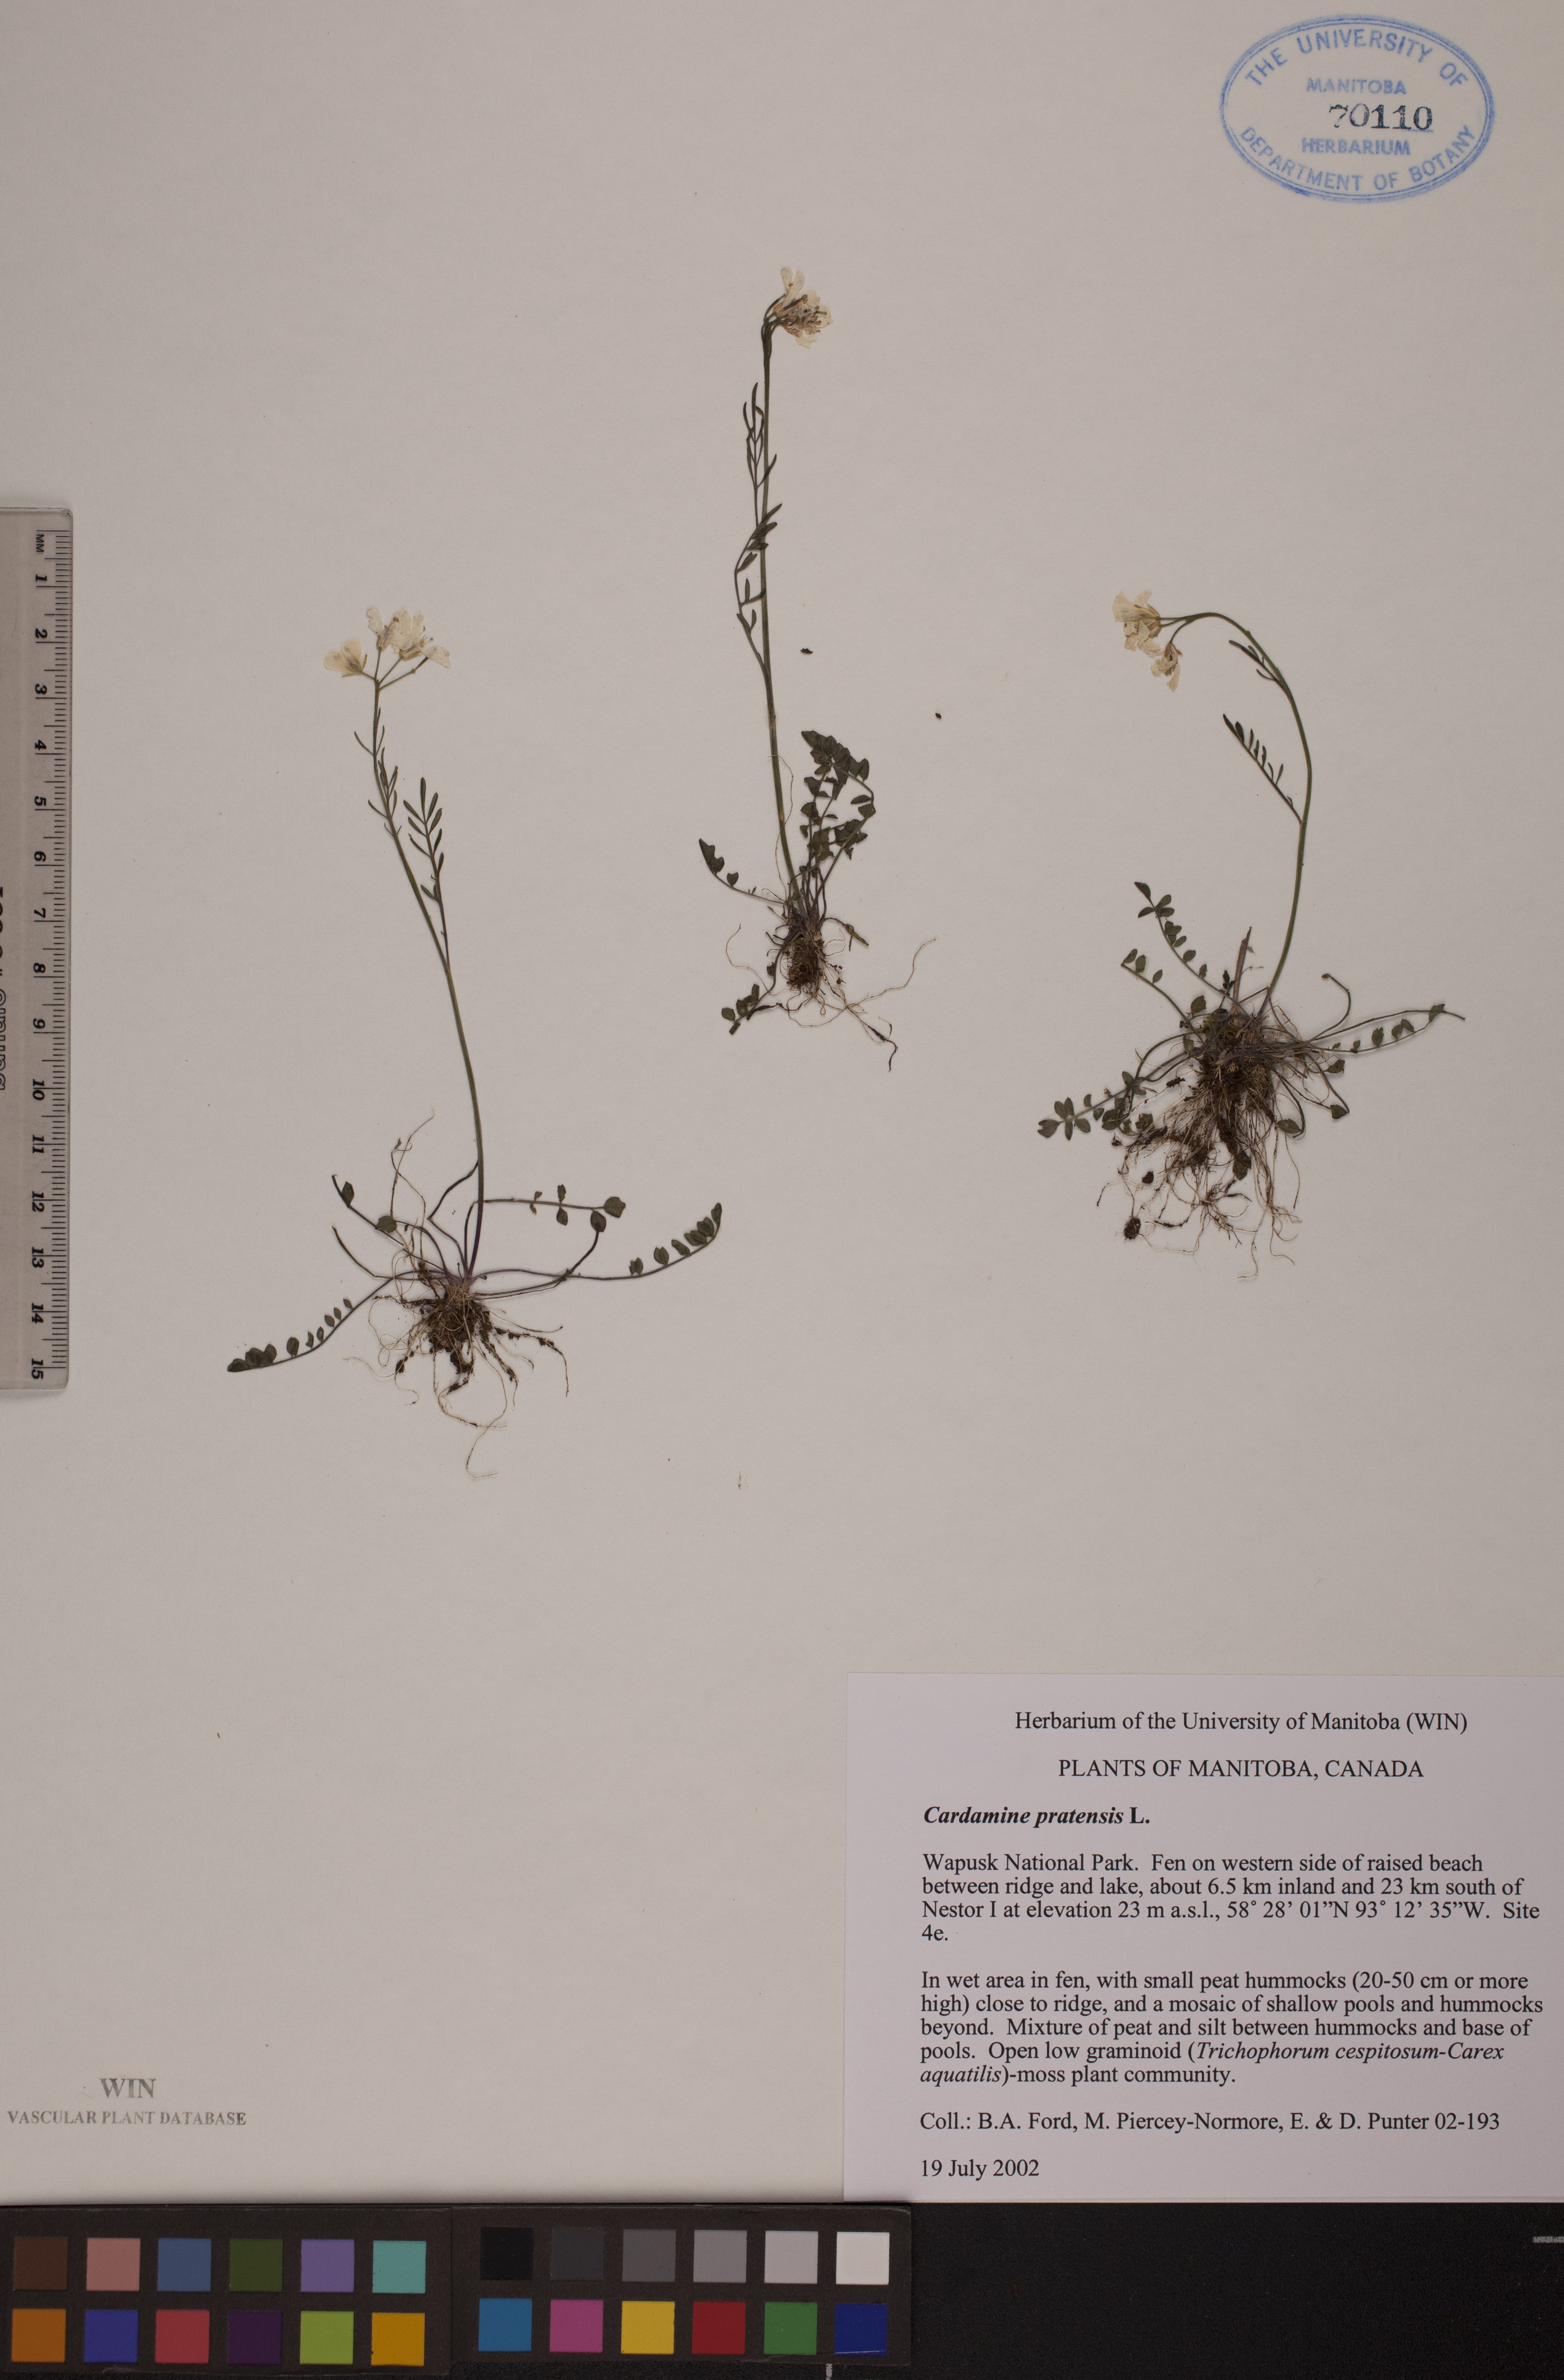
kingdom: Plantae
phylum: Tracheophyta
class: Magnoliopsida
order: Brassicales
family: Brassicaceae
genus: Cardamine
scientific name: Cardamine nymanii
